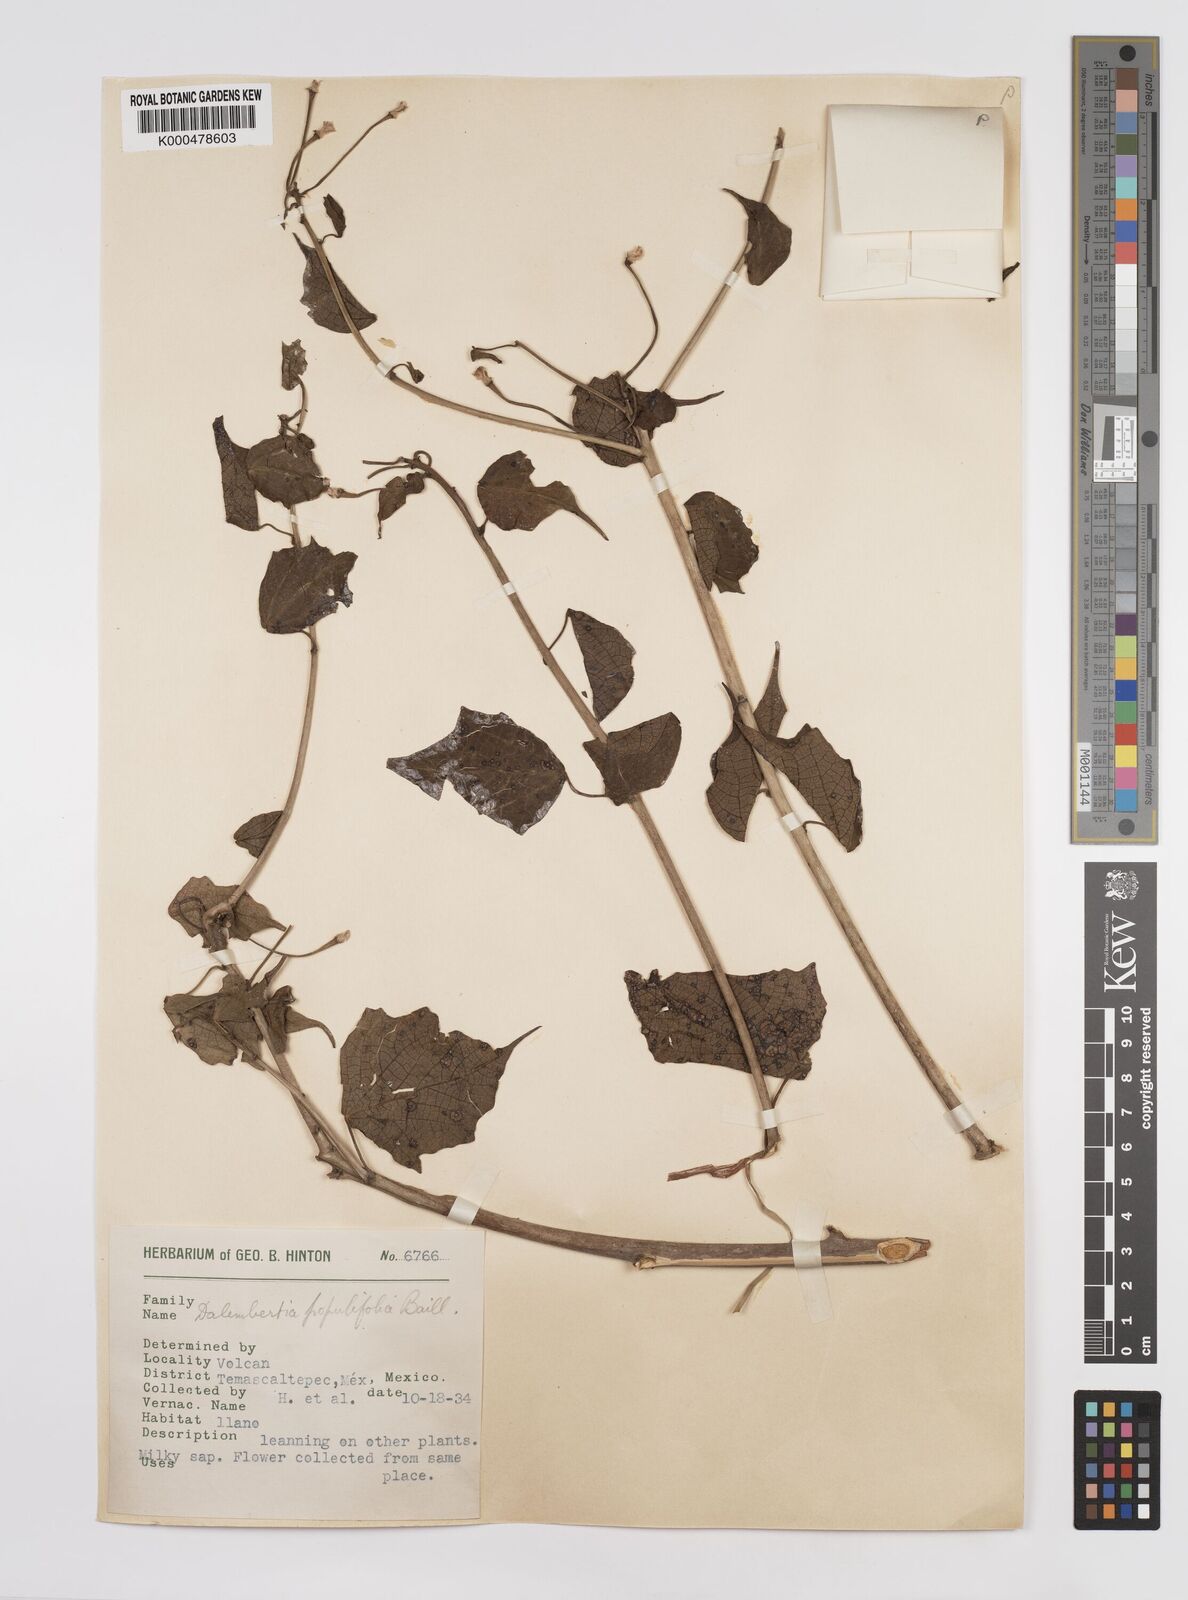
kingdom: Plantae
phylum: Tracheophyta
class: Magnoliopsida
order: Malpighiales
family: Euphorbiaceae
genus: Dalembertia
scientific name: Dalembertia populifolia
